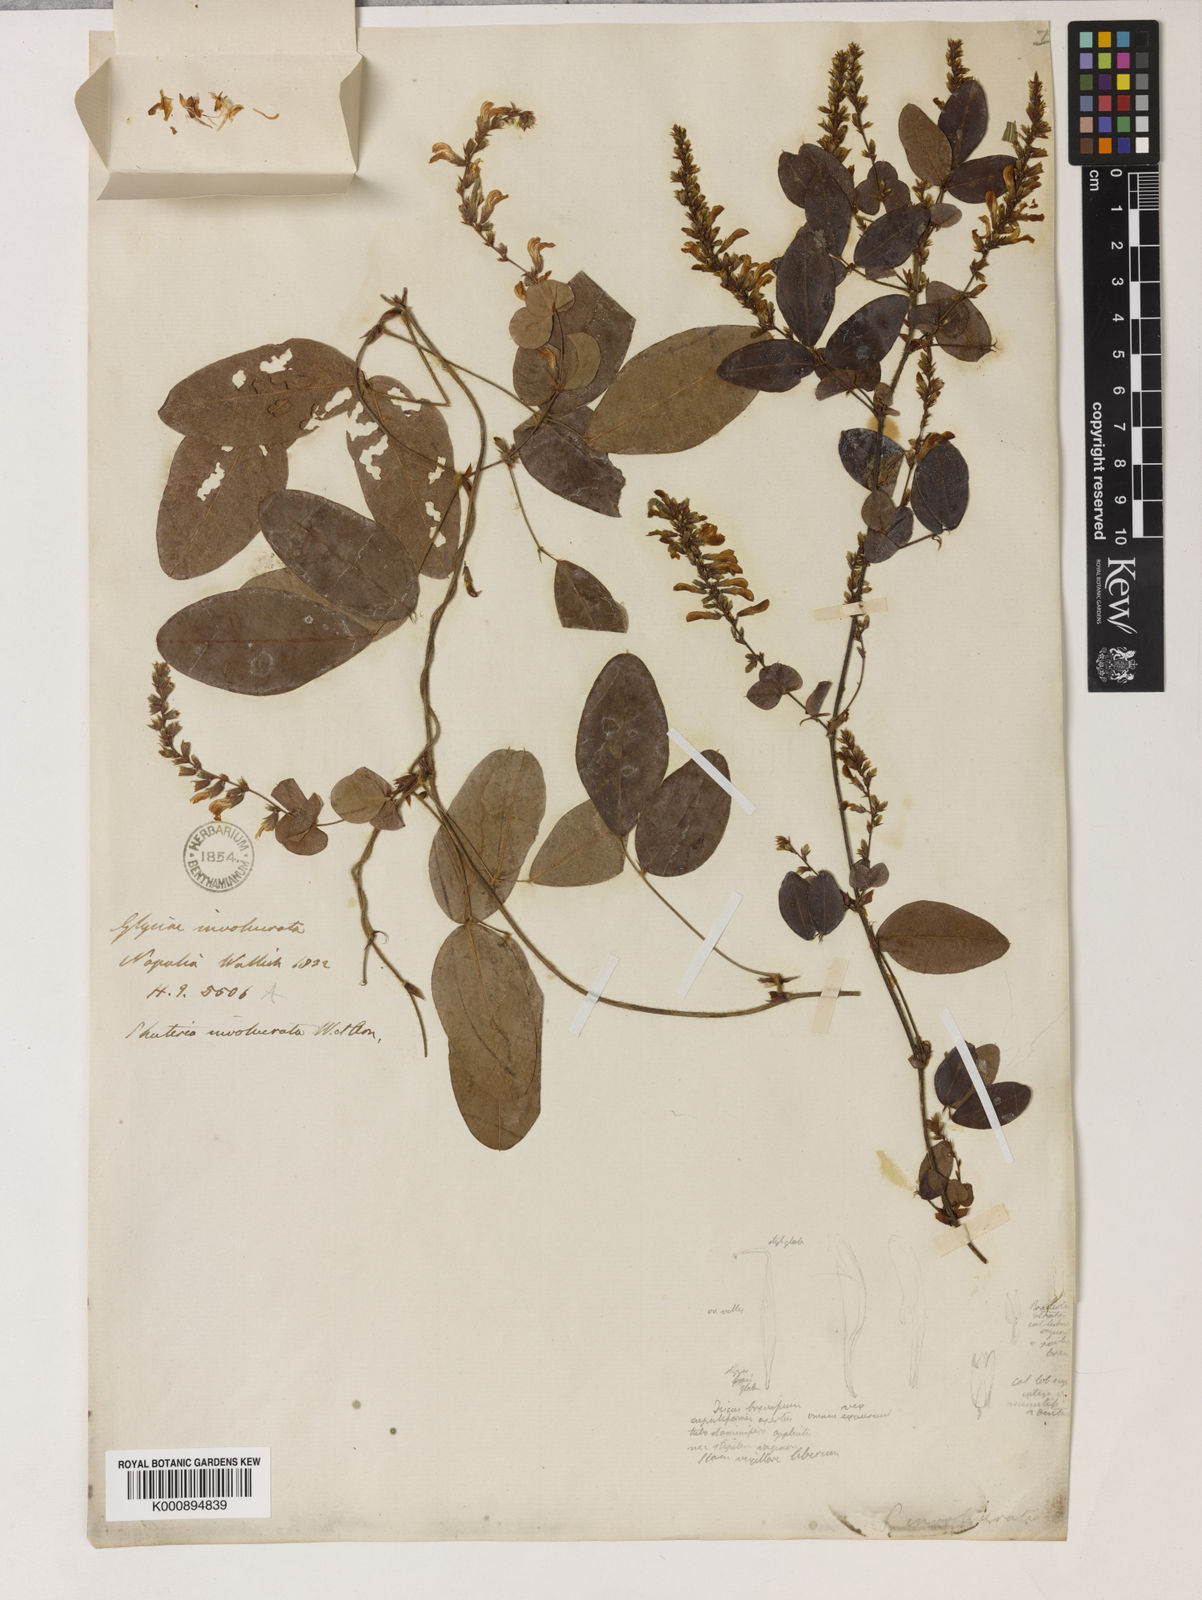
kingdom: Plantae
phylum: Tracheophyta
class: Magnoliopsida
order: Fabales
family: Fabaceae
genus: Shuteria
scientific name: Shuteria
